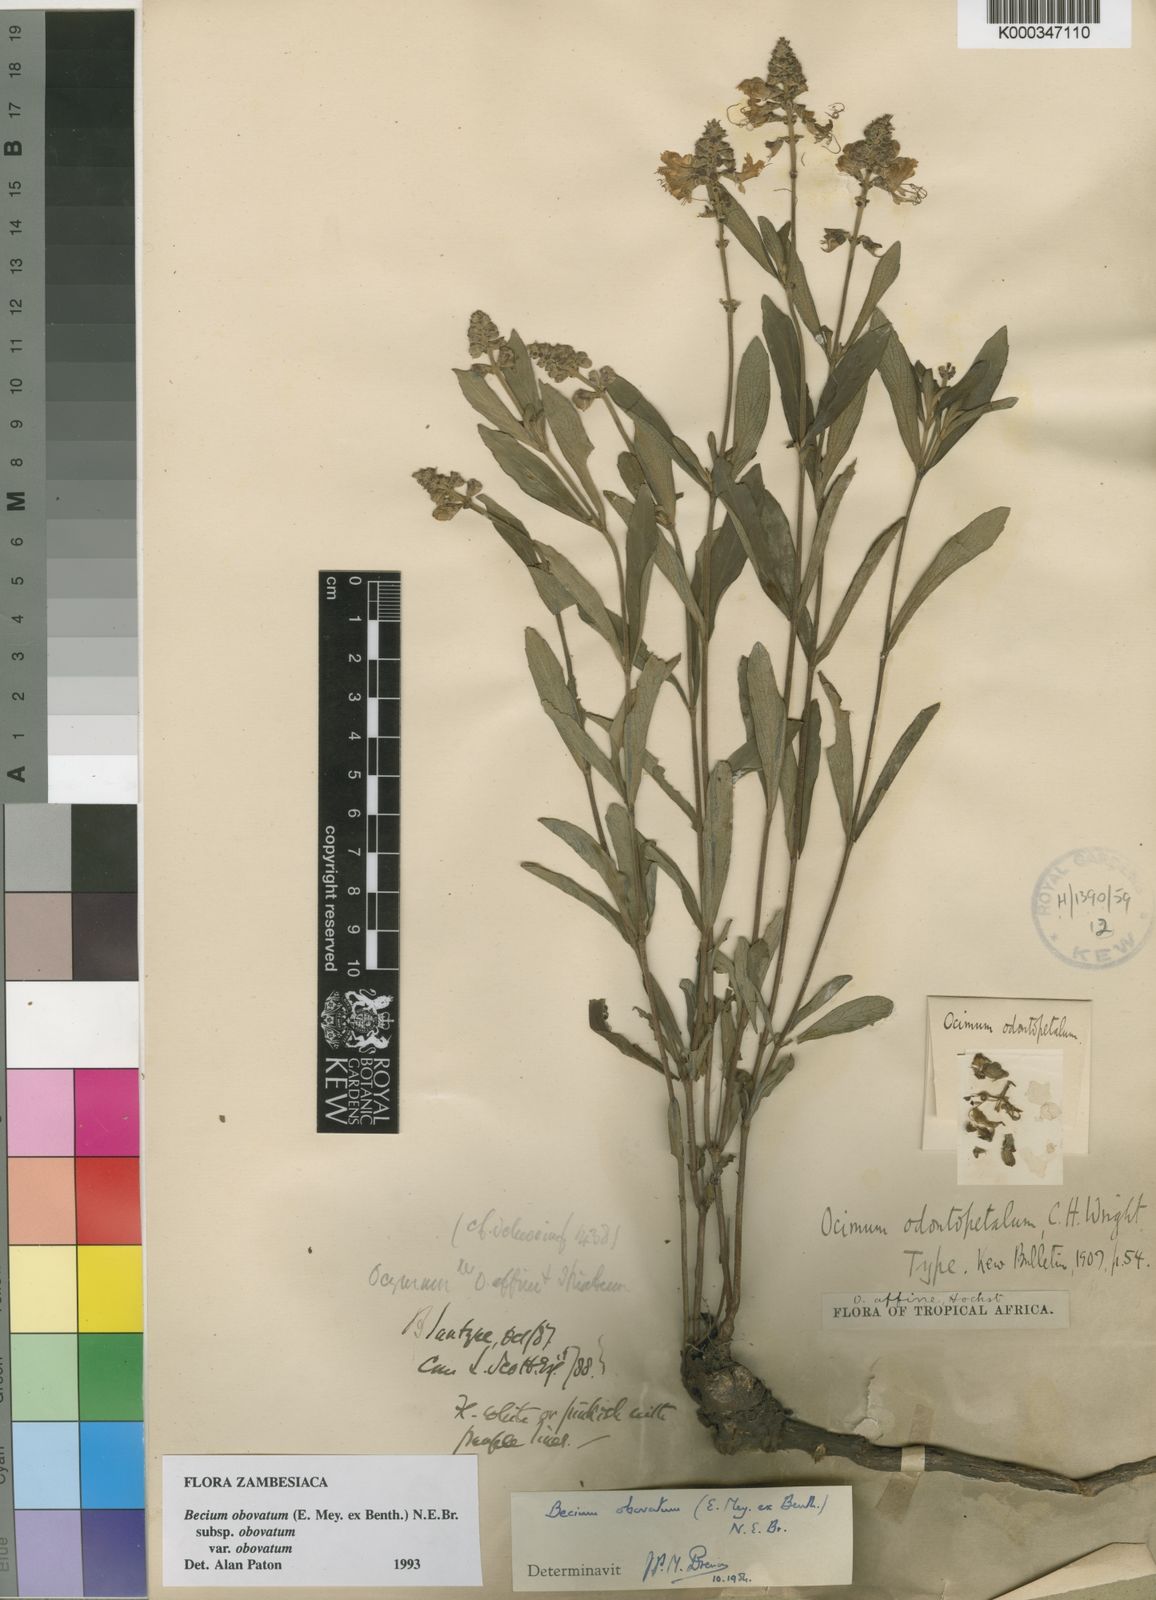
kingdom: Plantae
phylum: Tracheophyta
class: Magnoliopsida
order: Lamiales
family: Lamiaceae
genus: Ocimum
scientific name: Ocimum obovatum
